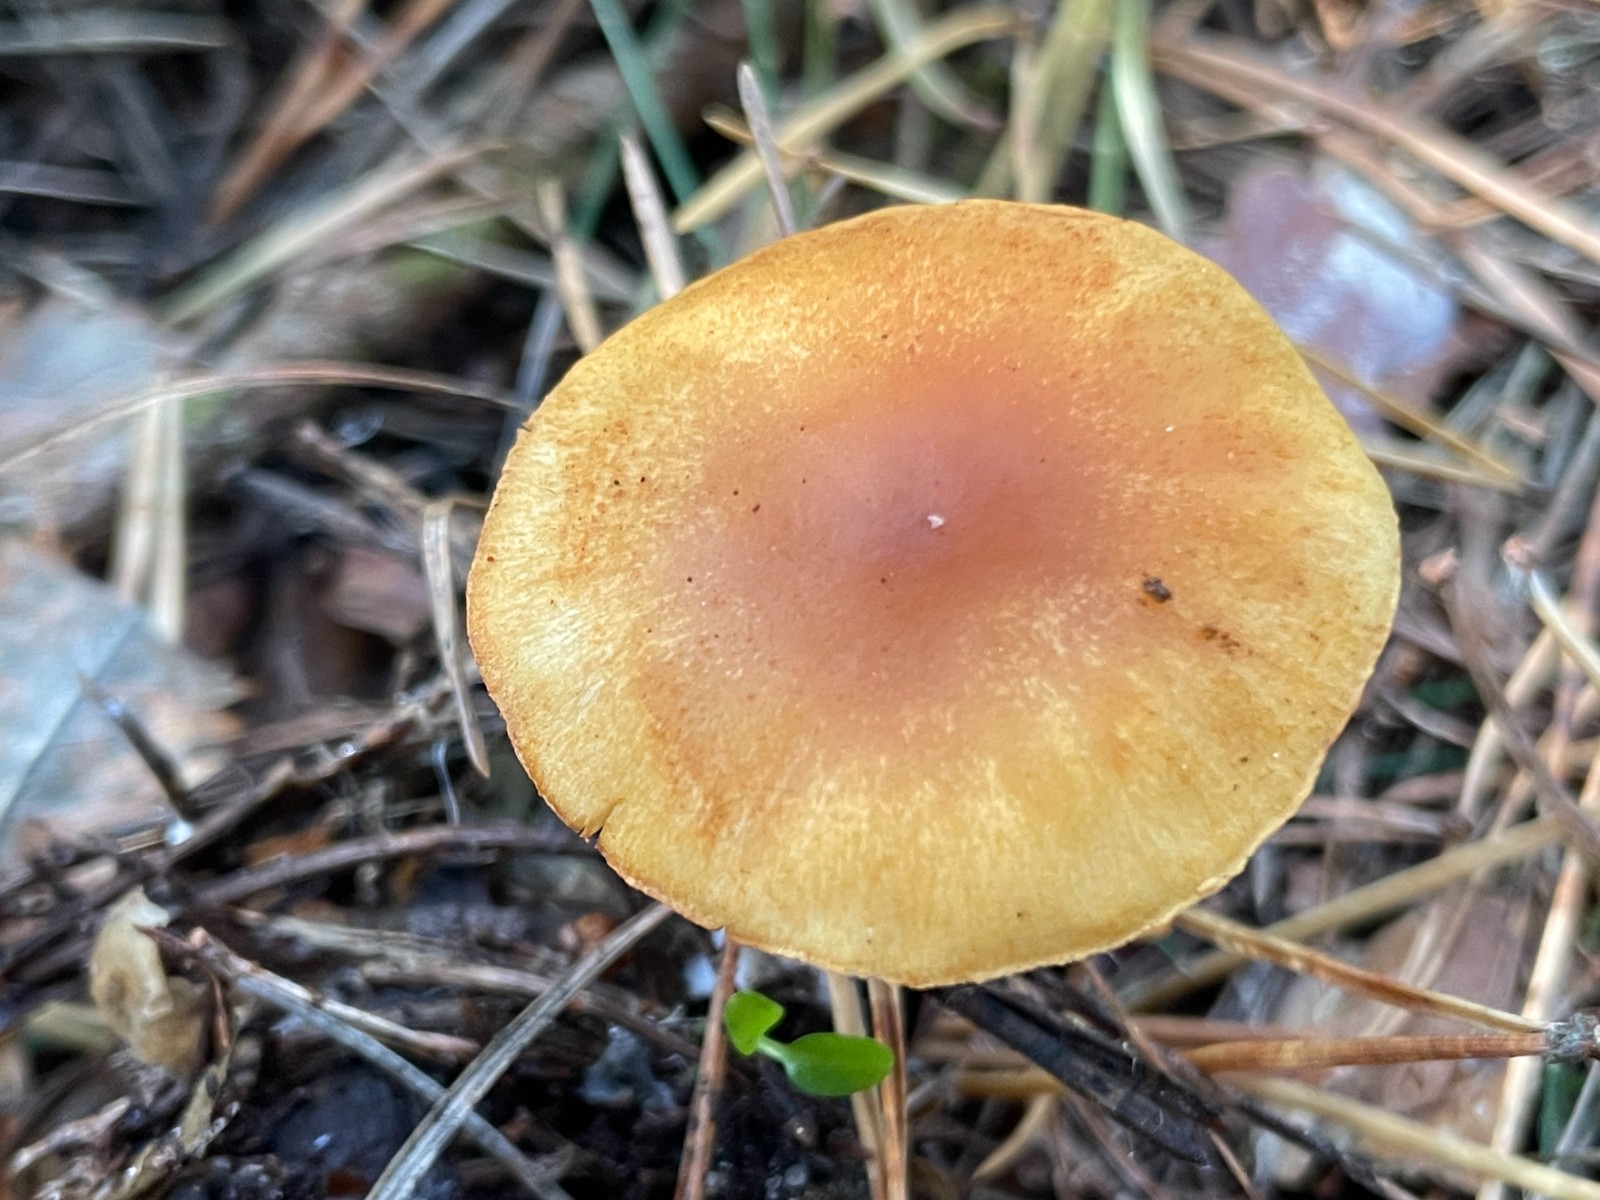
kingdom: Fungi
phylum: Basidiomycota
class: Agaricomycetes
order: Agaricales
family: Hymenogastraceae
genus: Gymnopilus
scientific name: Gymnopilus penetrans
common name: plettet flammehat
